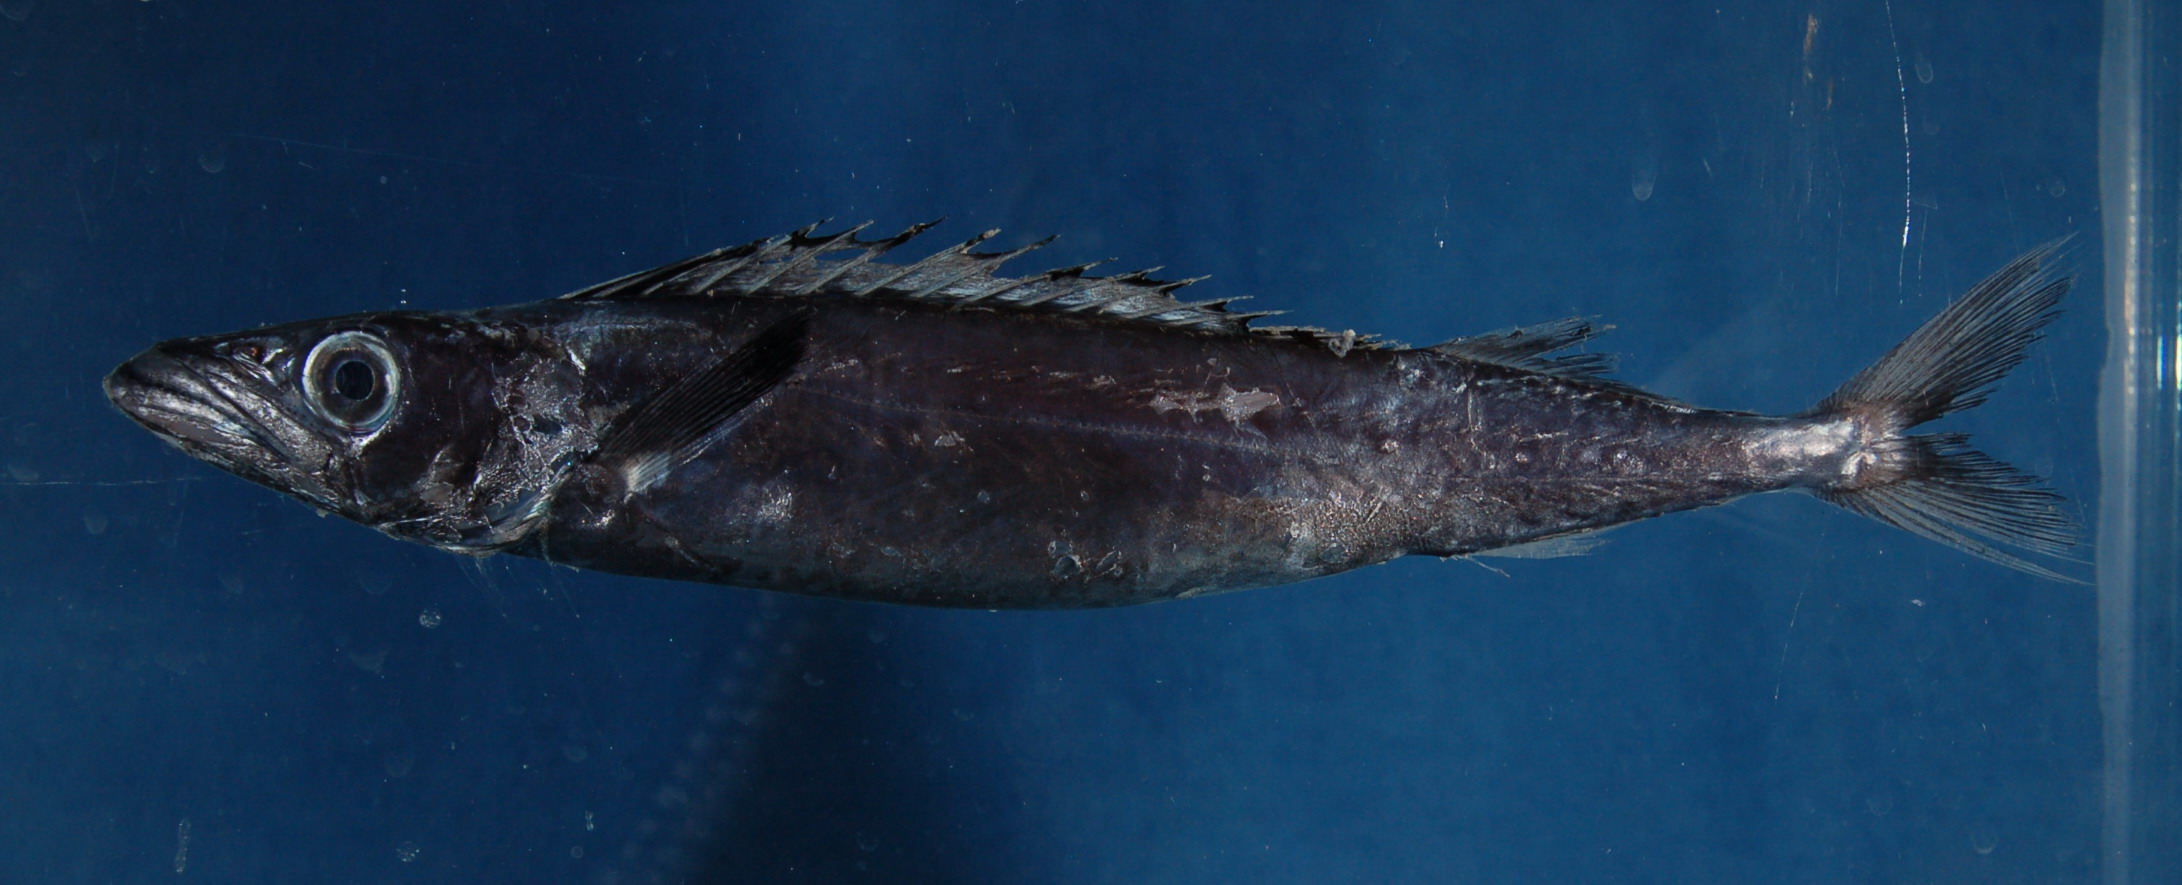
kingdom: Animalia
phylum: Chordata
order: Perciformes
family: Gempylidae
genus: Promethichthys
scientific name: Promethichthys prometheus
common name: Roudi escolar
